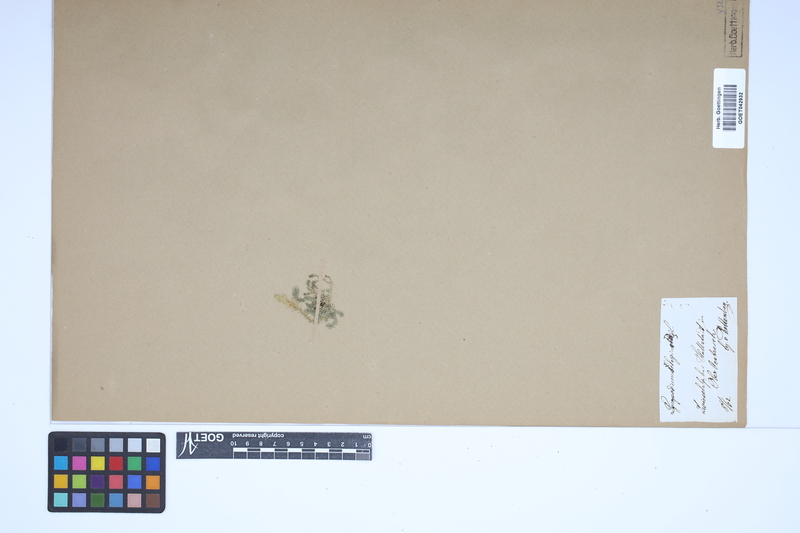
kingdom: Plantae
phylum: Tracheophyta
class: Lycopodiopsida
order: Selaginellales
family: Selaginellaceae
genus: Selaginella
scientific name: Selaginella selaginoides
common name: Prickly mountain-moss
